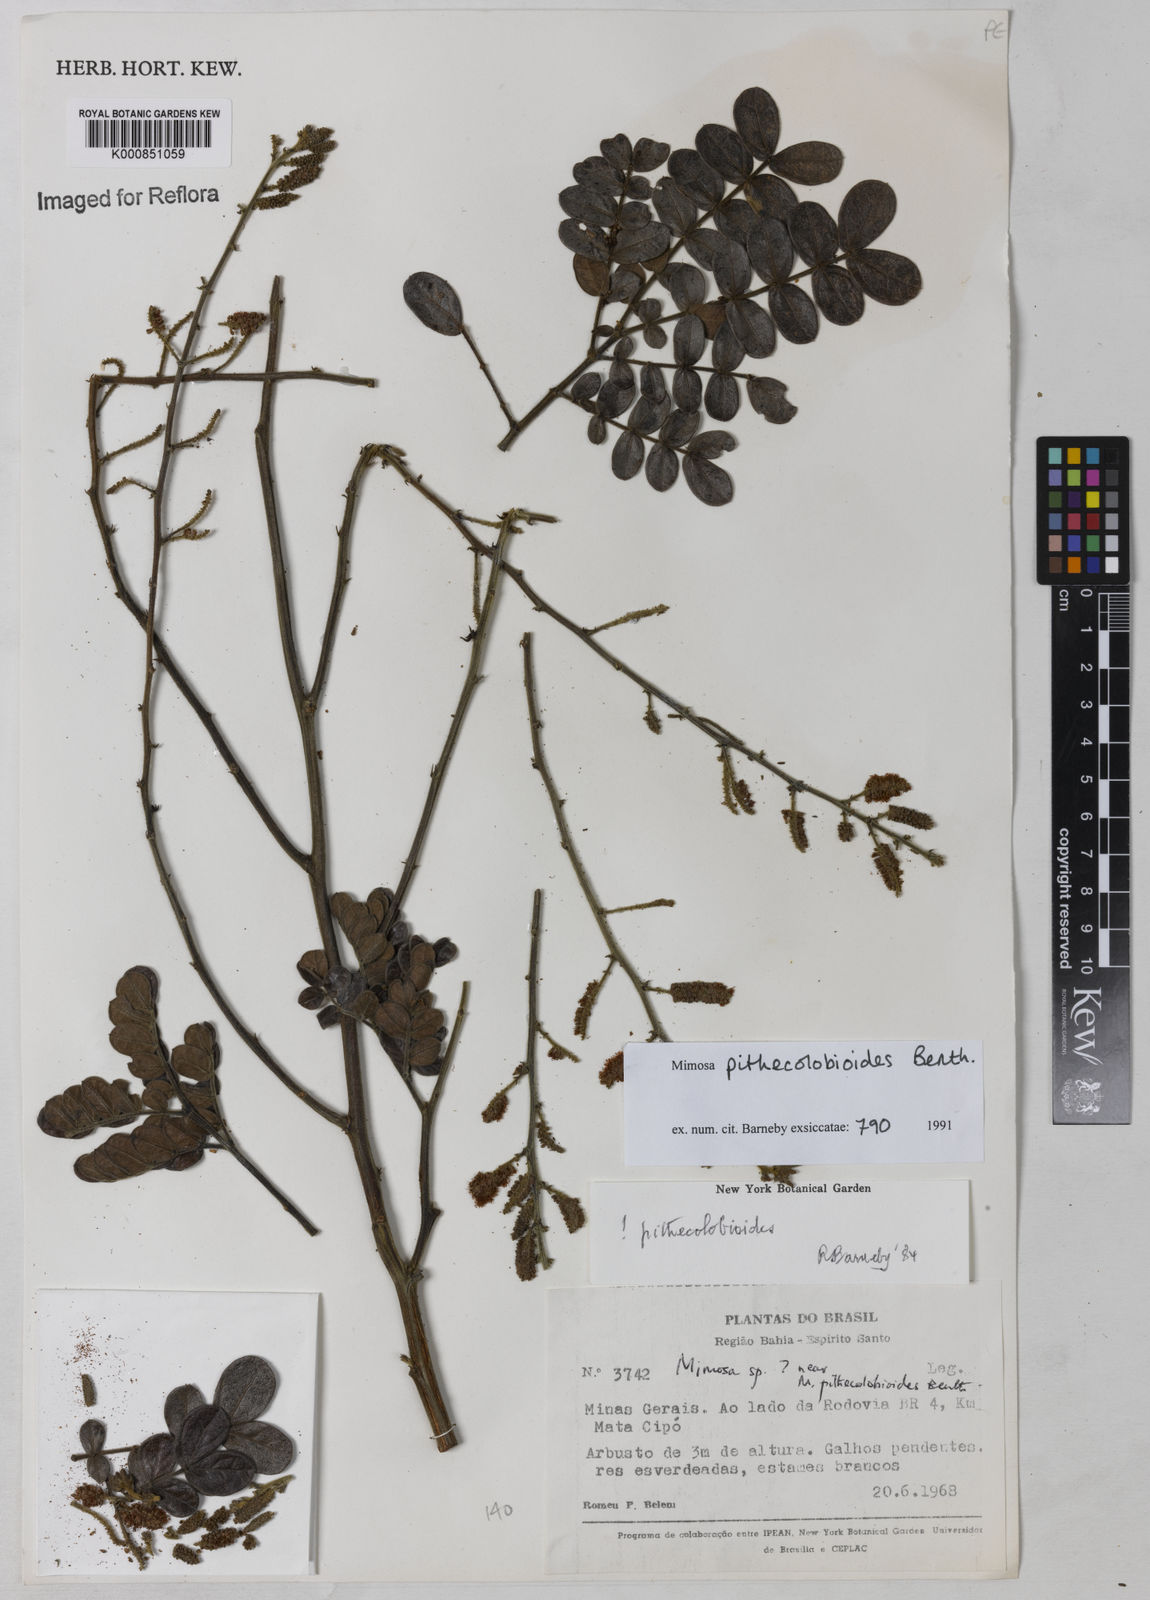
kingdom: Plantae
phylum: Tracheophyta
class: Magnoliopsida
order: Fabales
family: Fabaceae
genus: Mimosa
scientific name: Mimosa pithecolobioides
